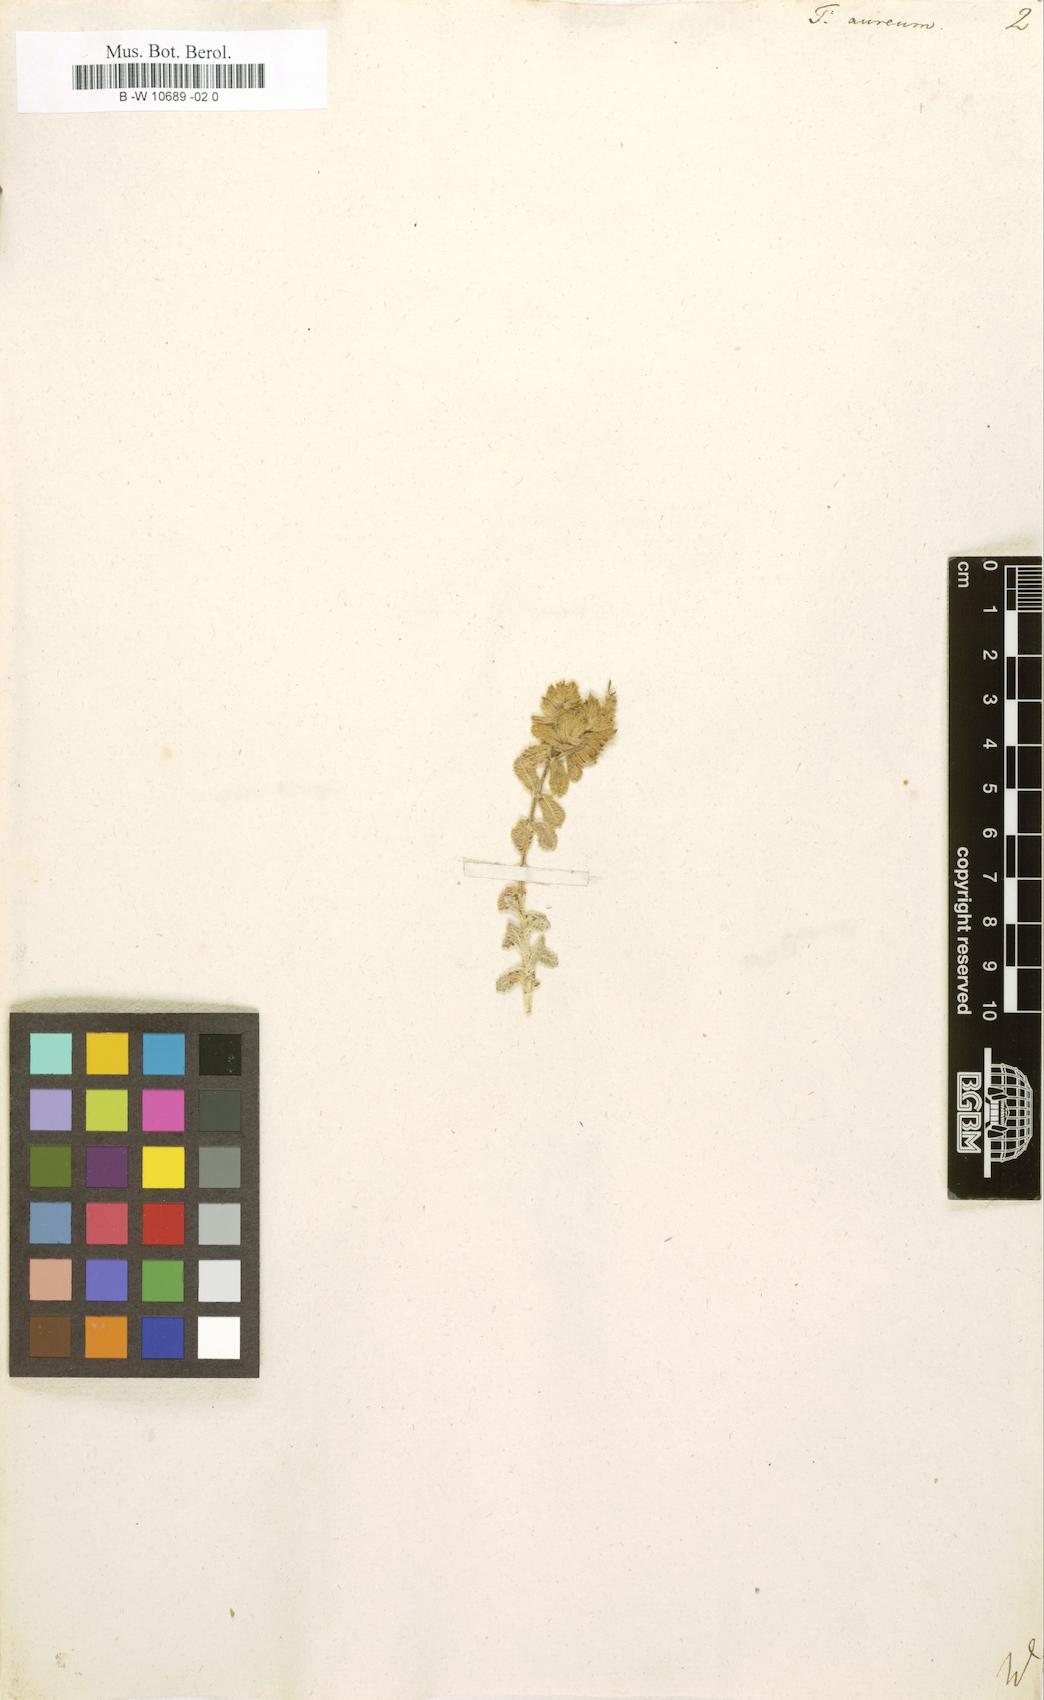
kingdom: Plantae
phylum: Tracheophyta
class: Magnoliopsida
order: Lamiales
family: Lamiaceae
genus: Teucrium
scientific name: Teucrium aureum
